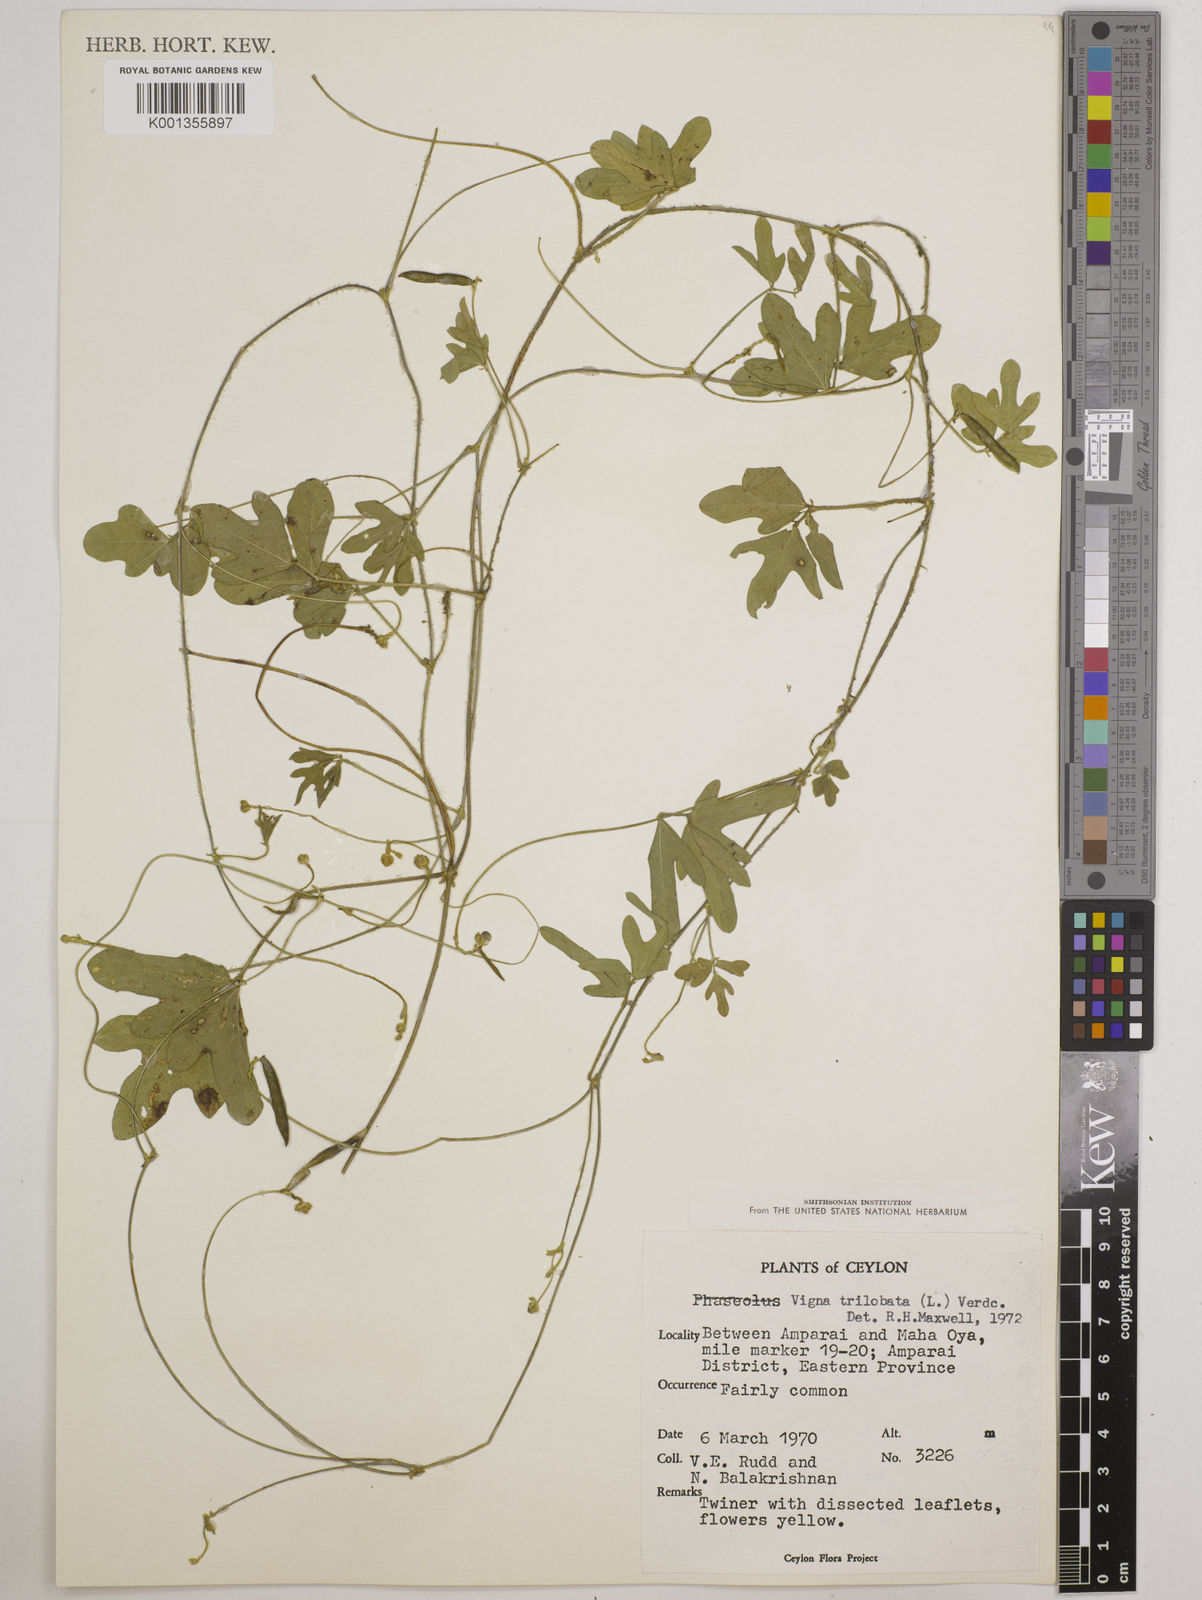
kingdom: Plantae
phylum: Tracheophyta
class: Magnoliopsida
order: Fabales
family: Fabaceae
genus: Vigna
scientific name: Vigna trilobata
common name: Jungli-bean
